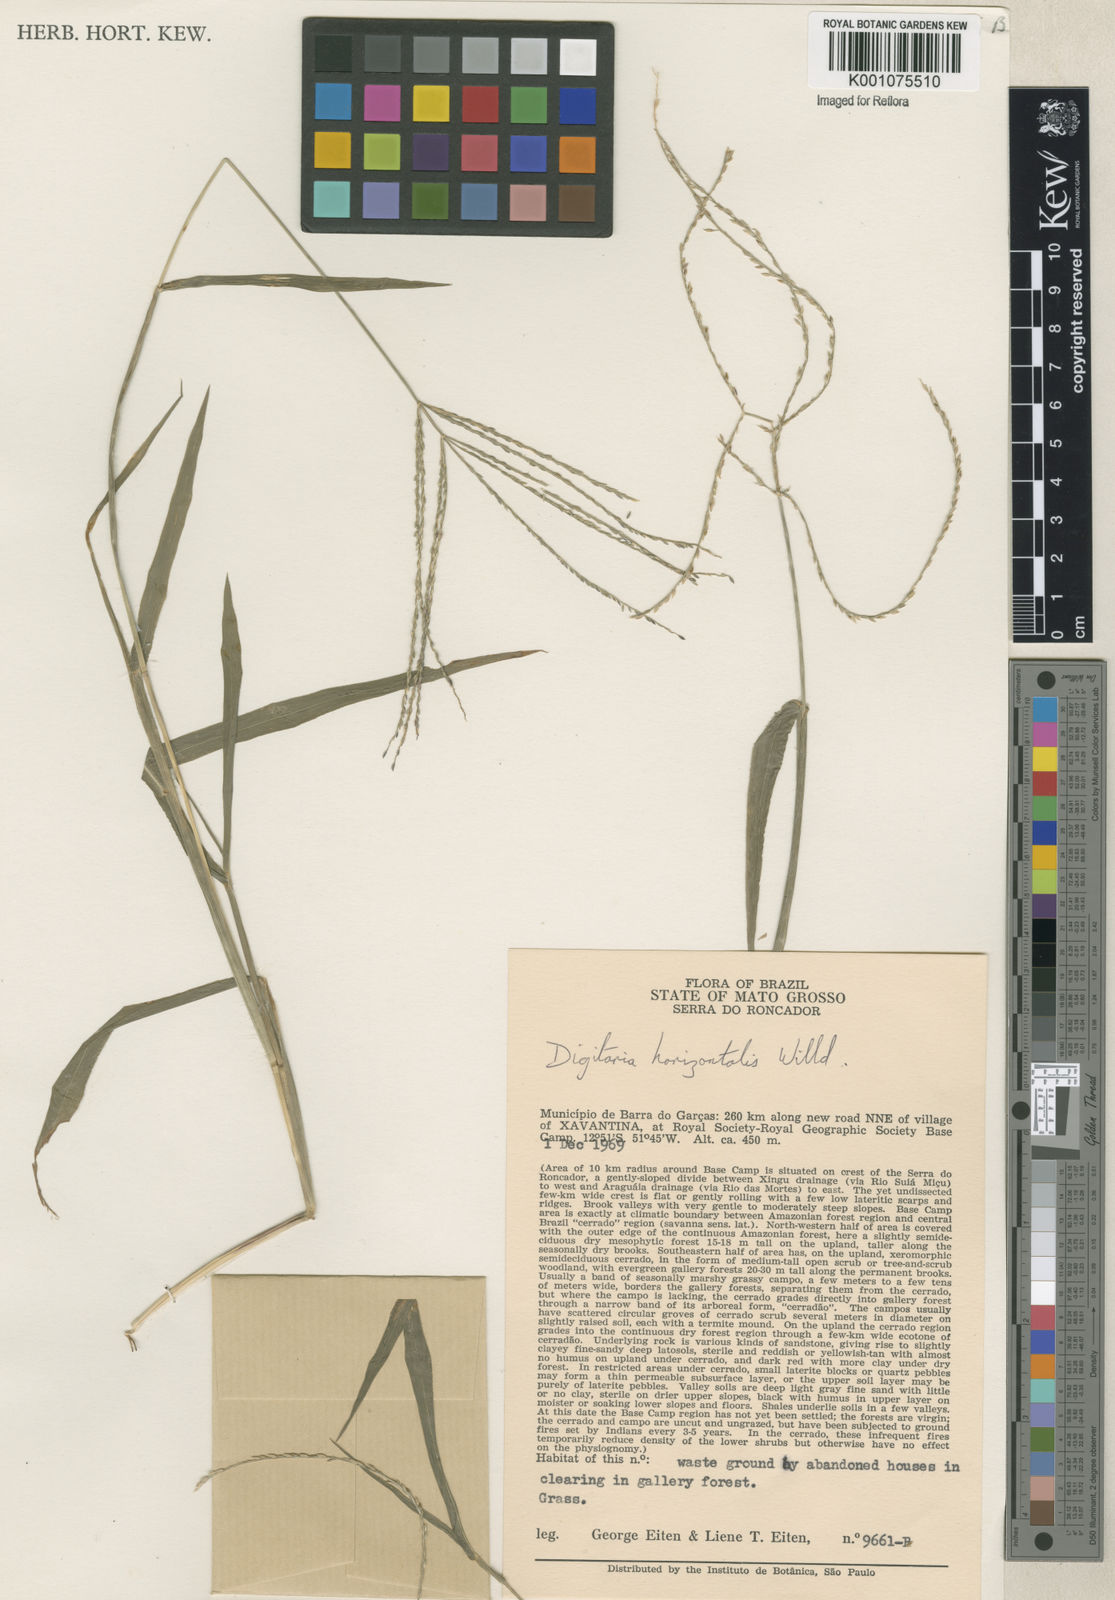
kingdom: Plantae
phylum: Tracheophyta
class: Liliopsida
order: Poales
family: Poaceae
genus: Digitaria
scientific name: Digitaria horizontalis
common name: Jamaican crabgrass
